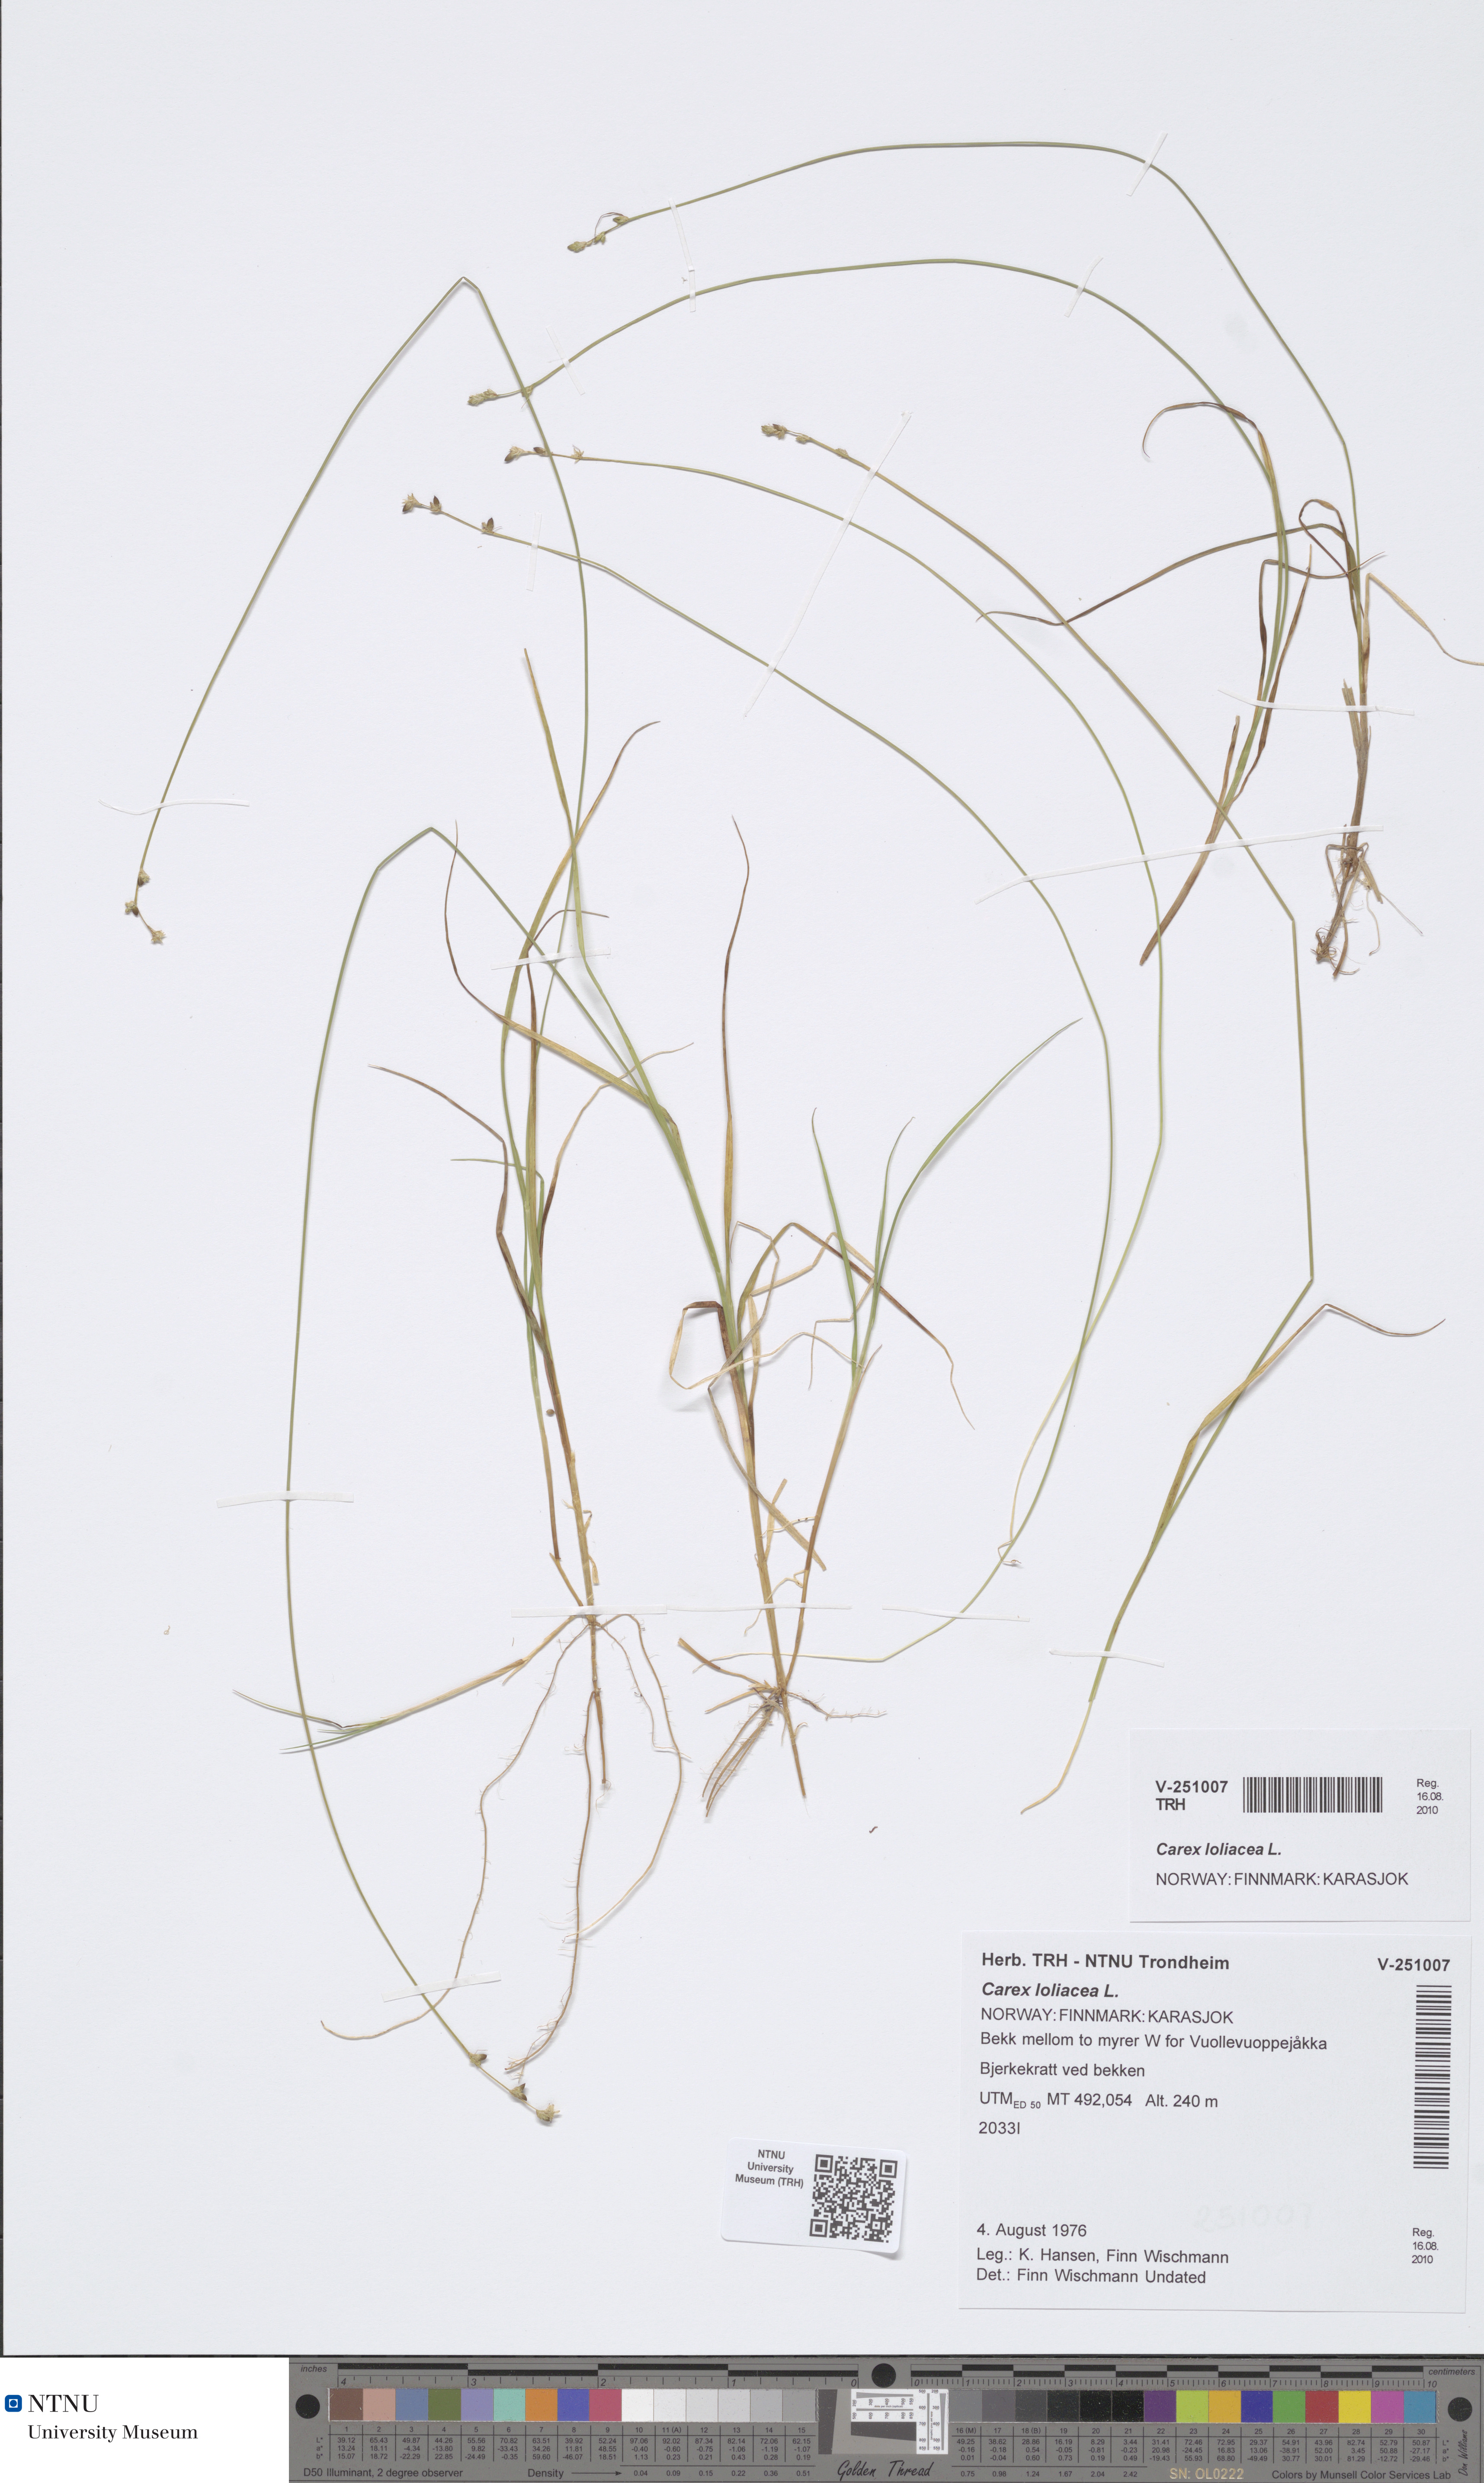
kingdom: Plantae
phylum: Tracheophyta
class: Liliopsida
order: Poales
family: Cyperaceae
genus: Carex
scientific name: Carex loliacea
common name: Ryegrass sedge
